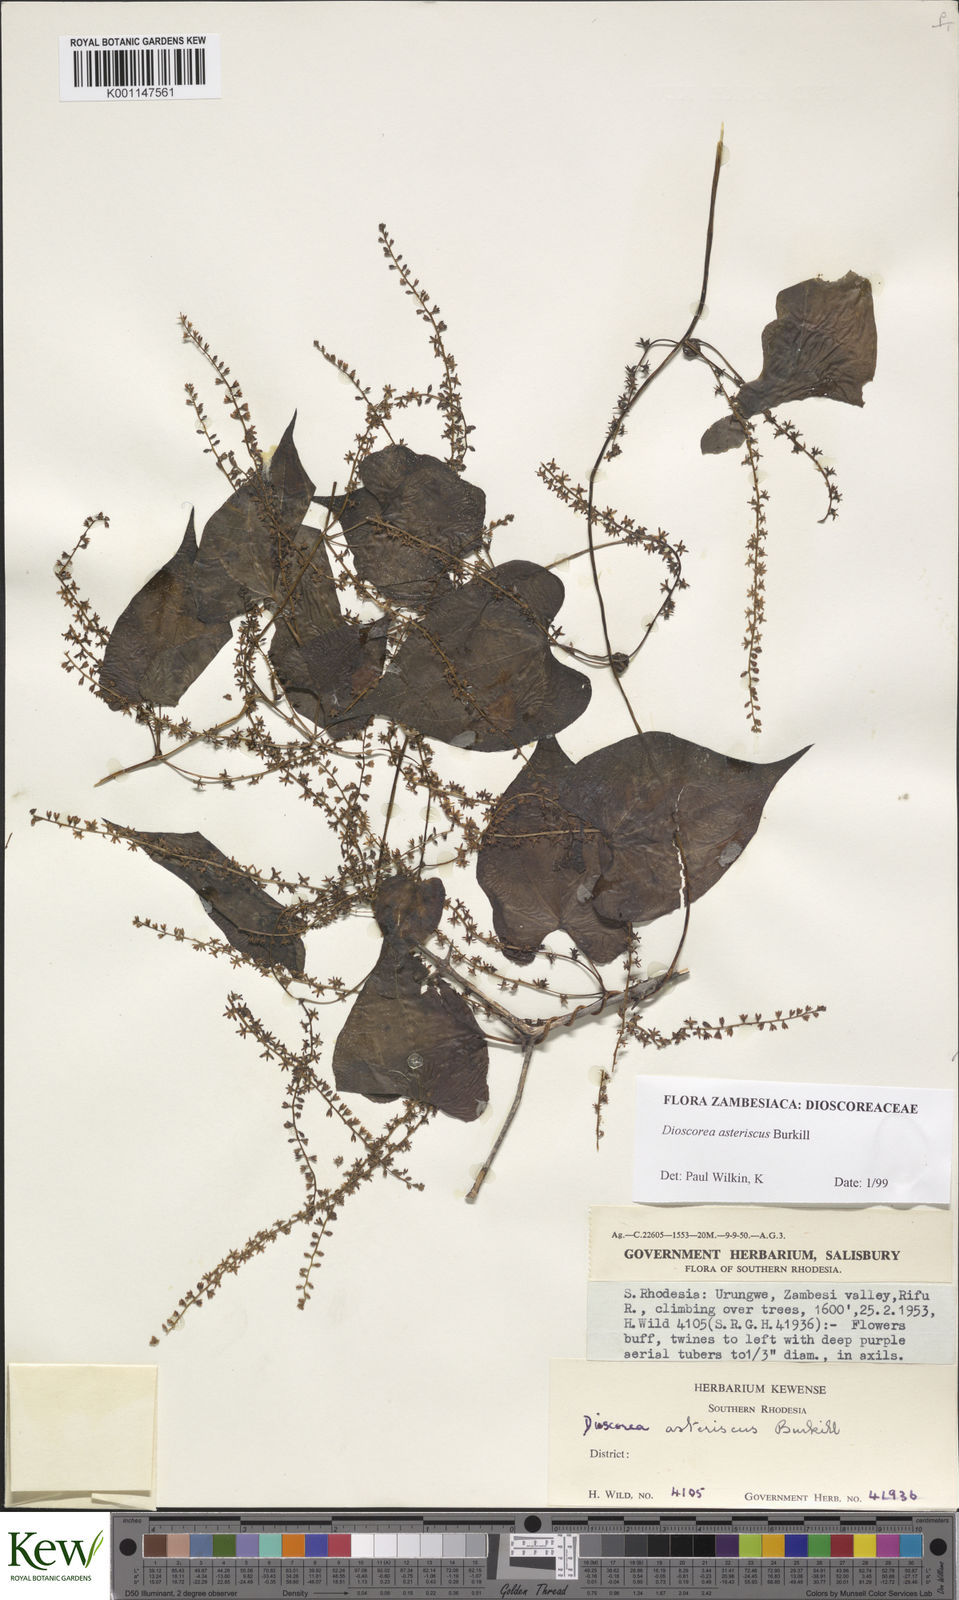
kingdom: Plantae
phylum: Tracheophyta
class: Liliopsida
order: Dioscoreales
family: Dioscoreaceae
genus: Dioscorea
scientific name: Dioscorea asteriscus
